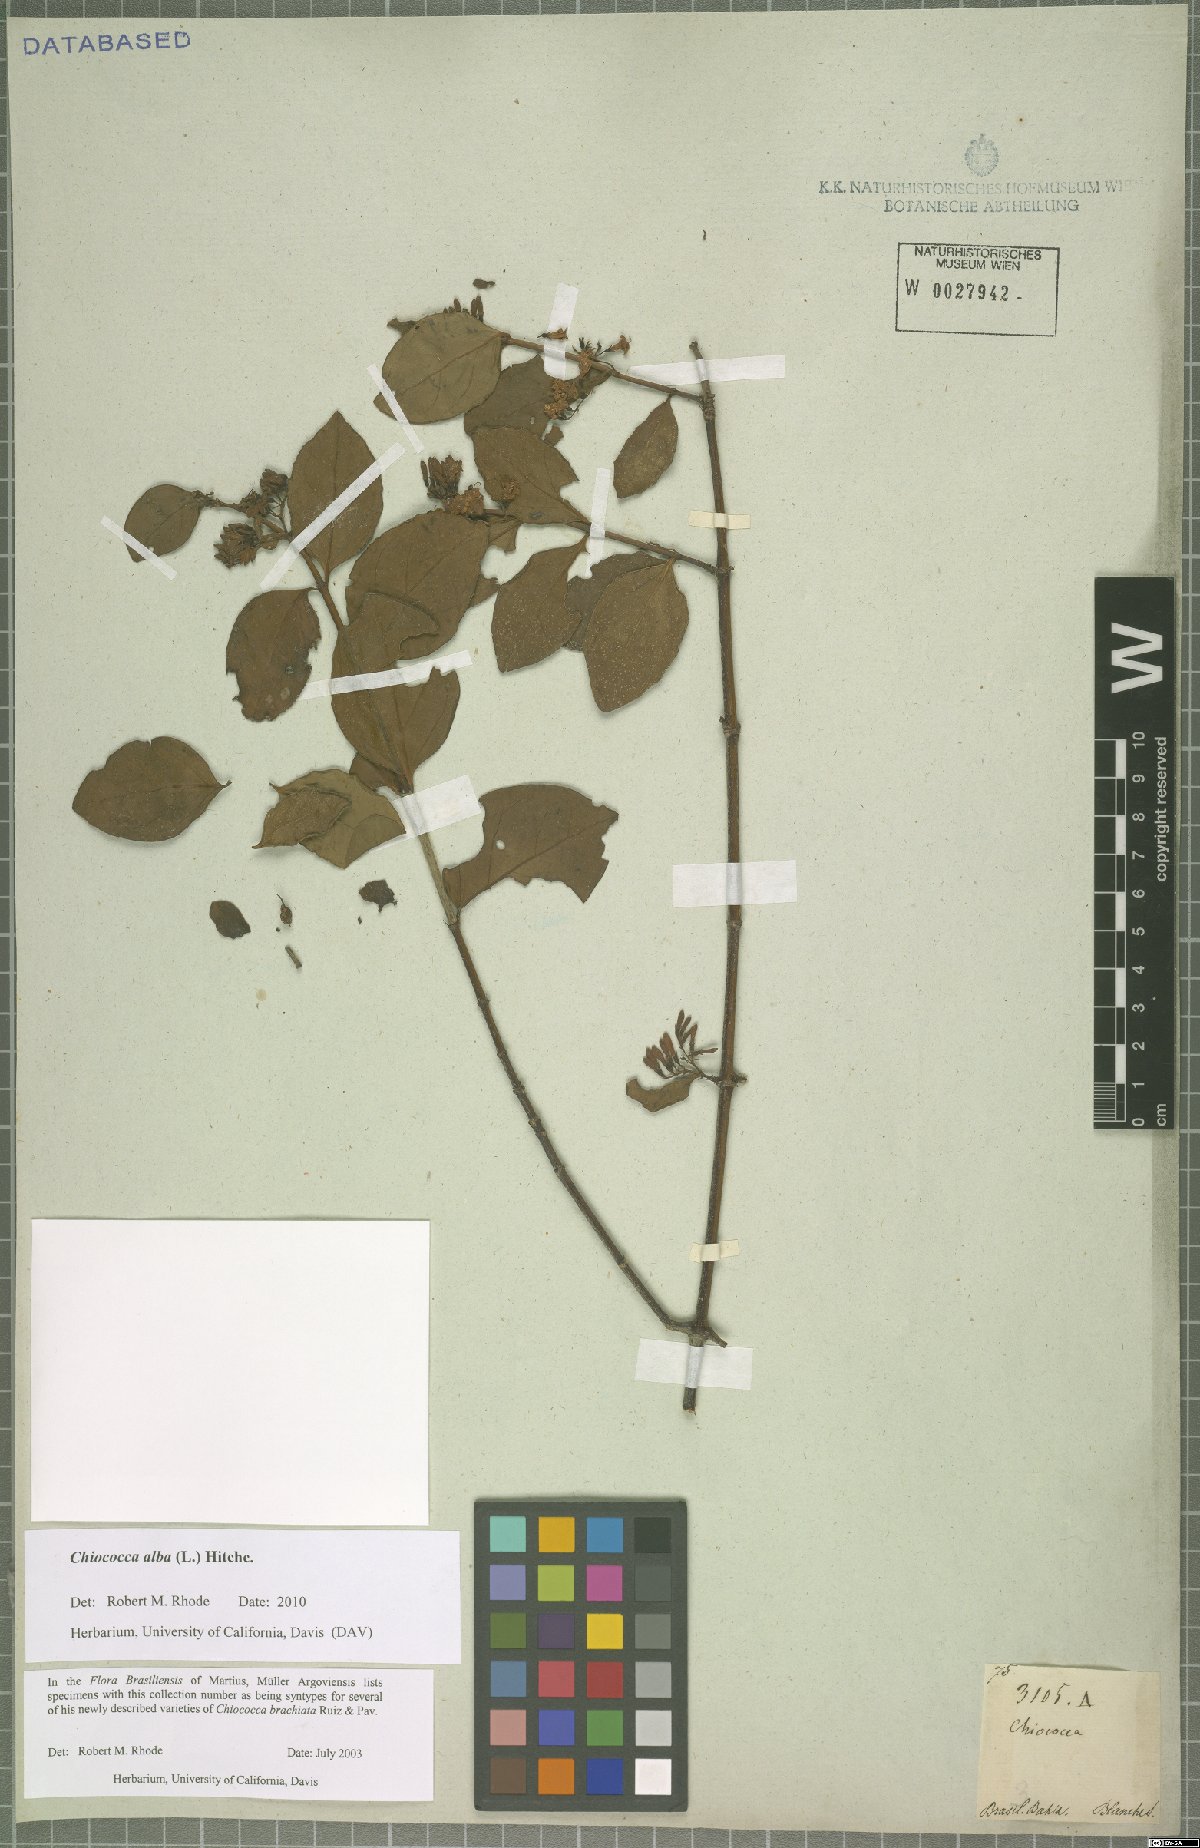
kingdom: Plantae
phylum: Tracheophyta
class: Magnoliopsida
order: Gentianales
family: Rubiaceae
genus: Chiococca
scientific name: Chiococca alba
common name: Snowberry
